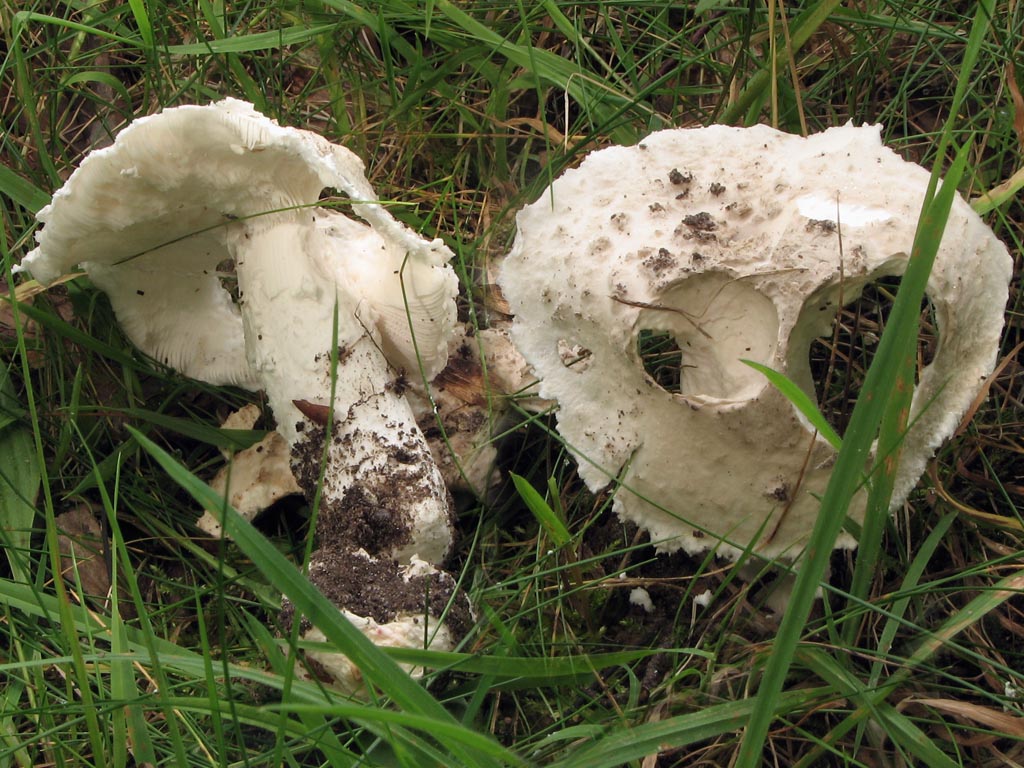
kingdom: Fungi
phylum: Basidiomycota
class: Agaricomycetes
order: Agaricales
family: Amanitaceae
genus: Amanita
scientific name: Amanita
